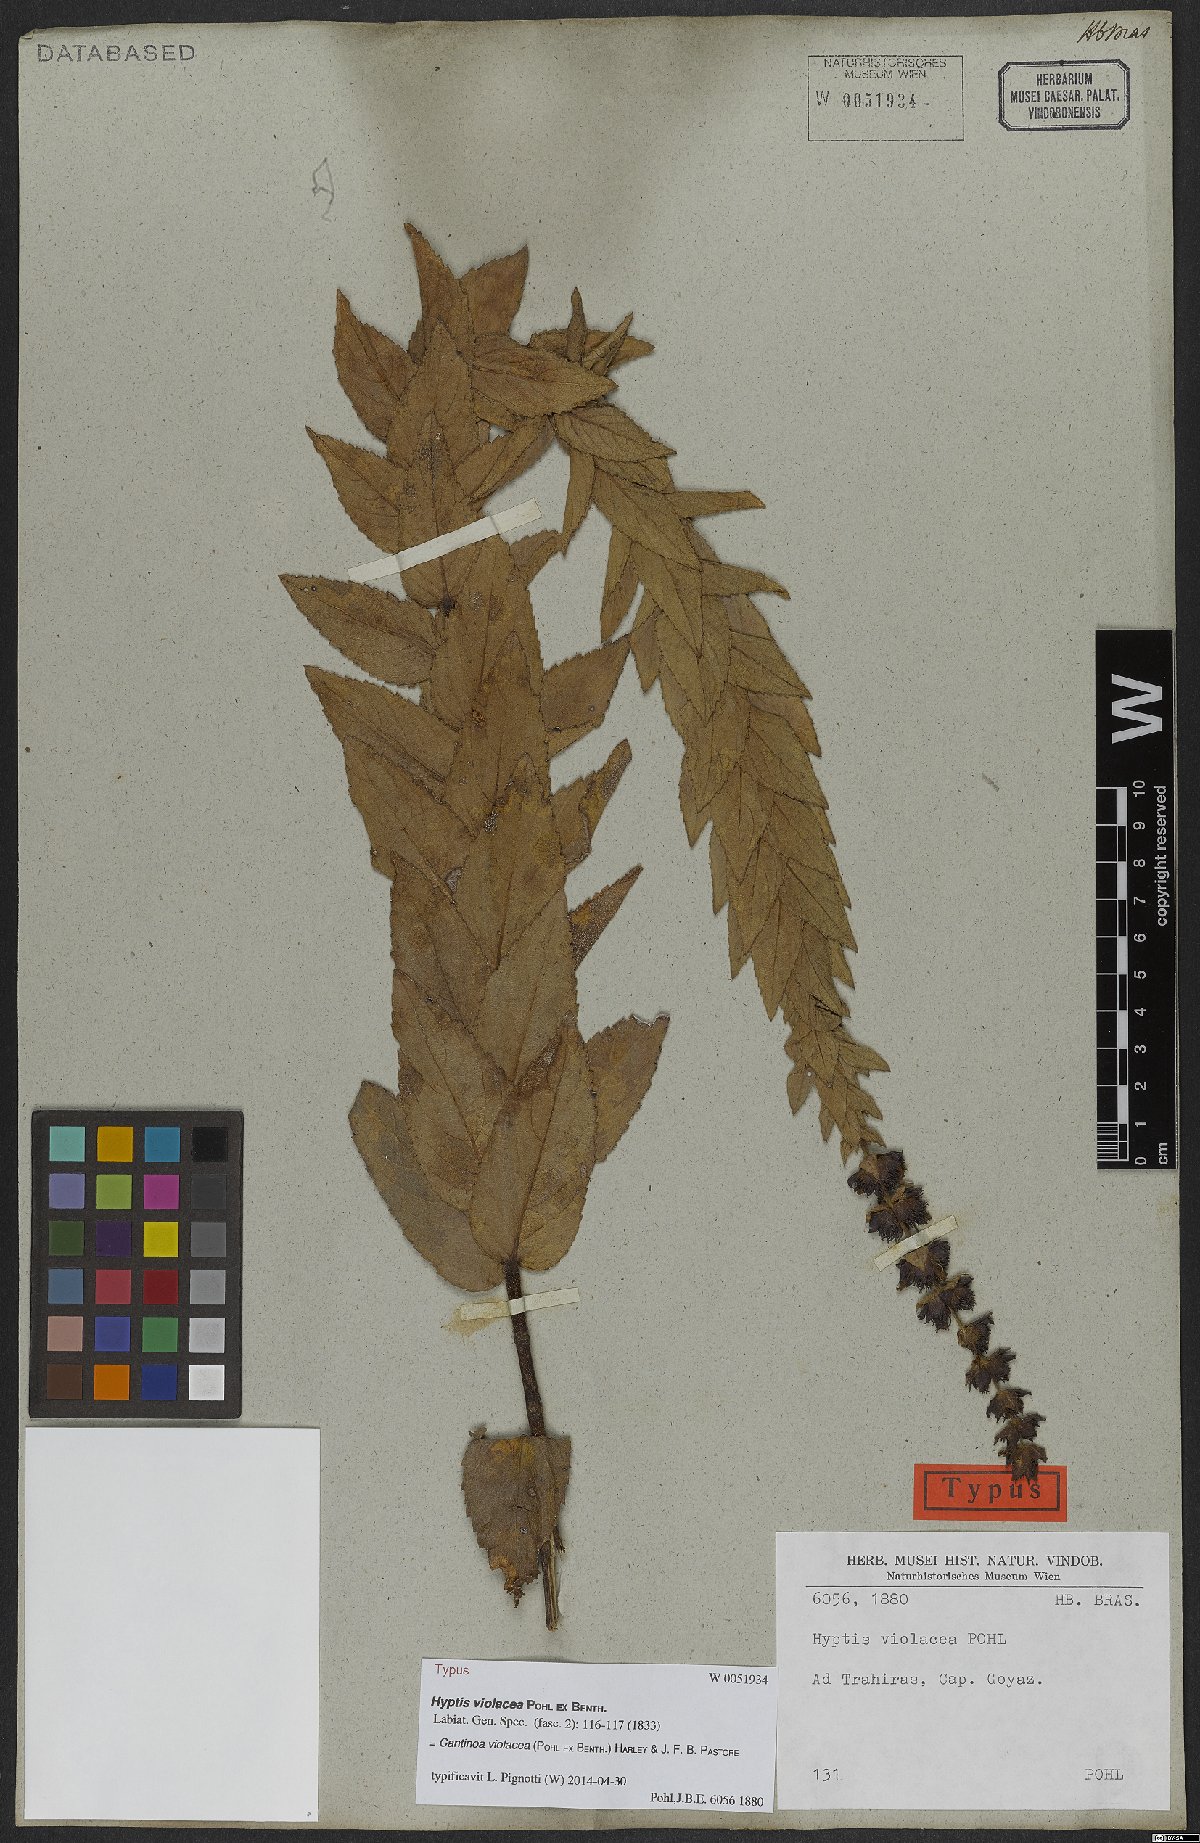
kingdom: Plantae
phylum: Tracheophyta
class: Magnoliopsida
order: Lamiales
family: Lamiaceae
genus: Cantinoa
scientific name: Cantinoa violacea
